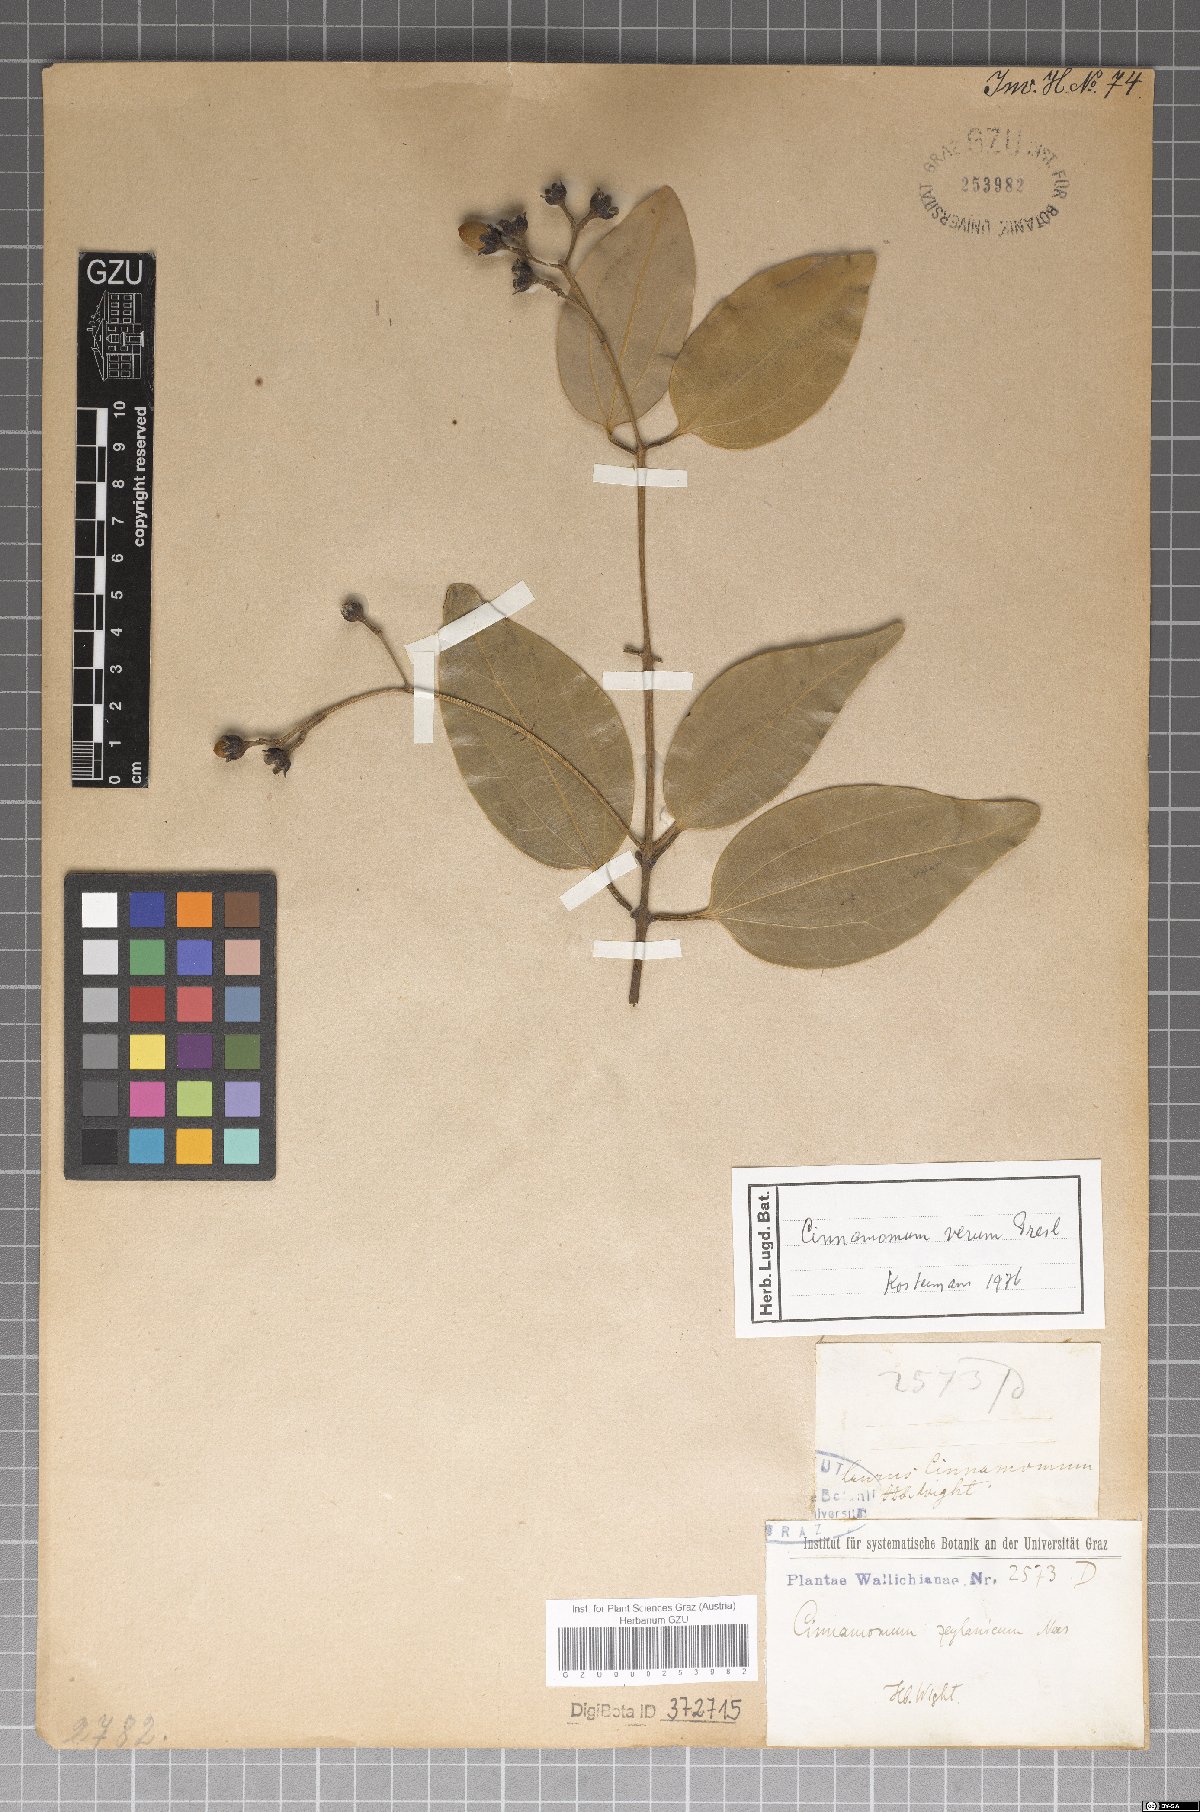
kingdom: Plantae
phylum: Tracheophyta
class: Magnoliopsida
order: Laurales
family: Lauraceae
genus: Cinnamomum
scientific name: Cinnamomum verum
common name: Cinnamon
